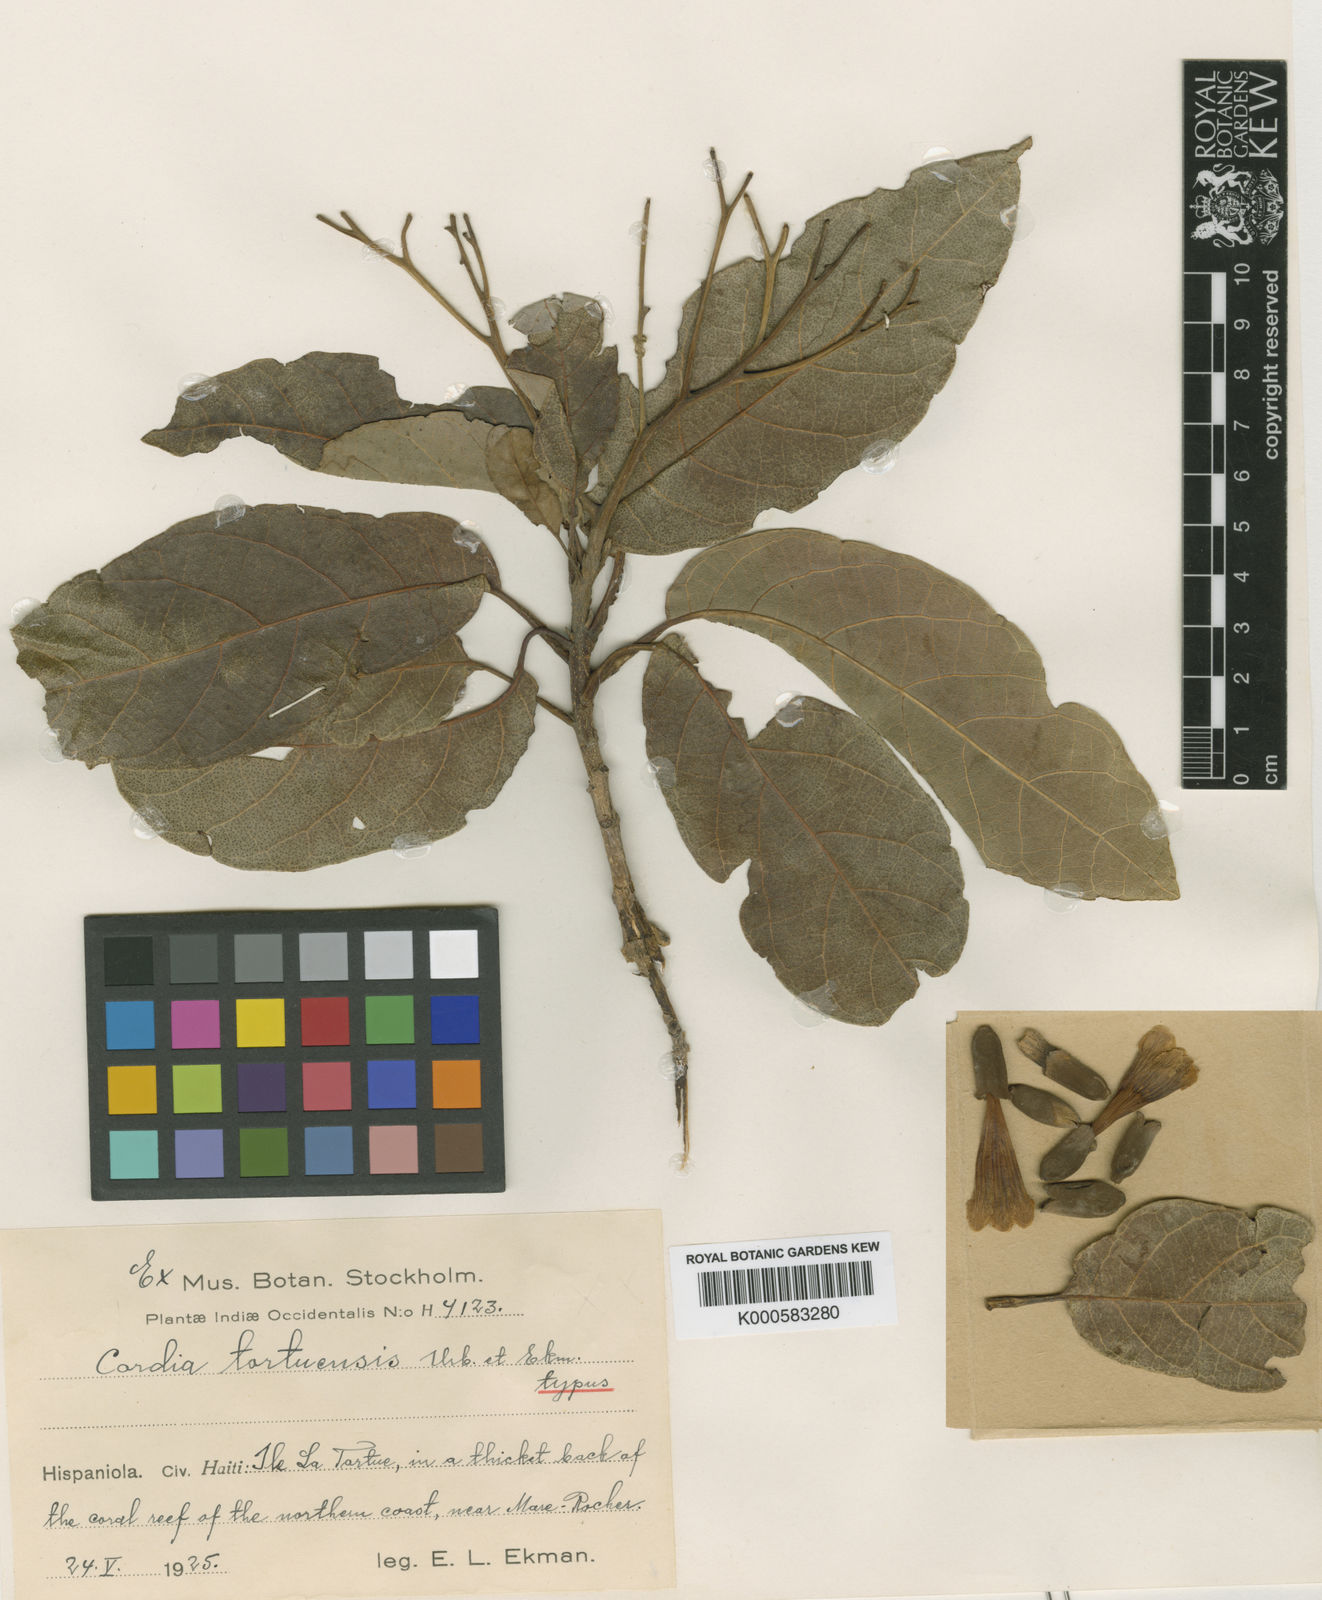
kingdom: Plantae
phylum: Tracheophyta
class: Magnoliopsida
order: Boraginales
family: Cordiaceae
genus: Cordia
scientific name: Cordia tortuensis
